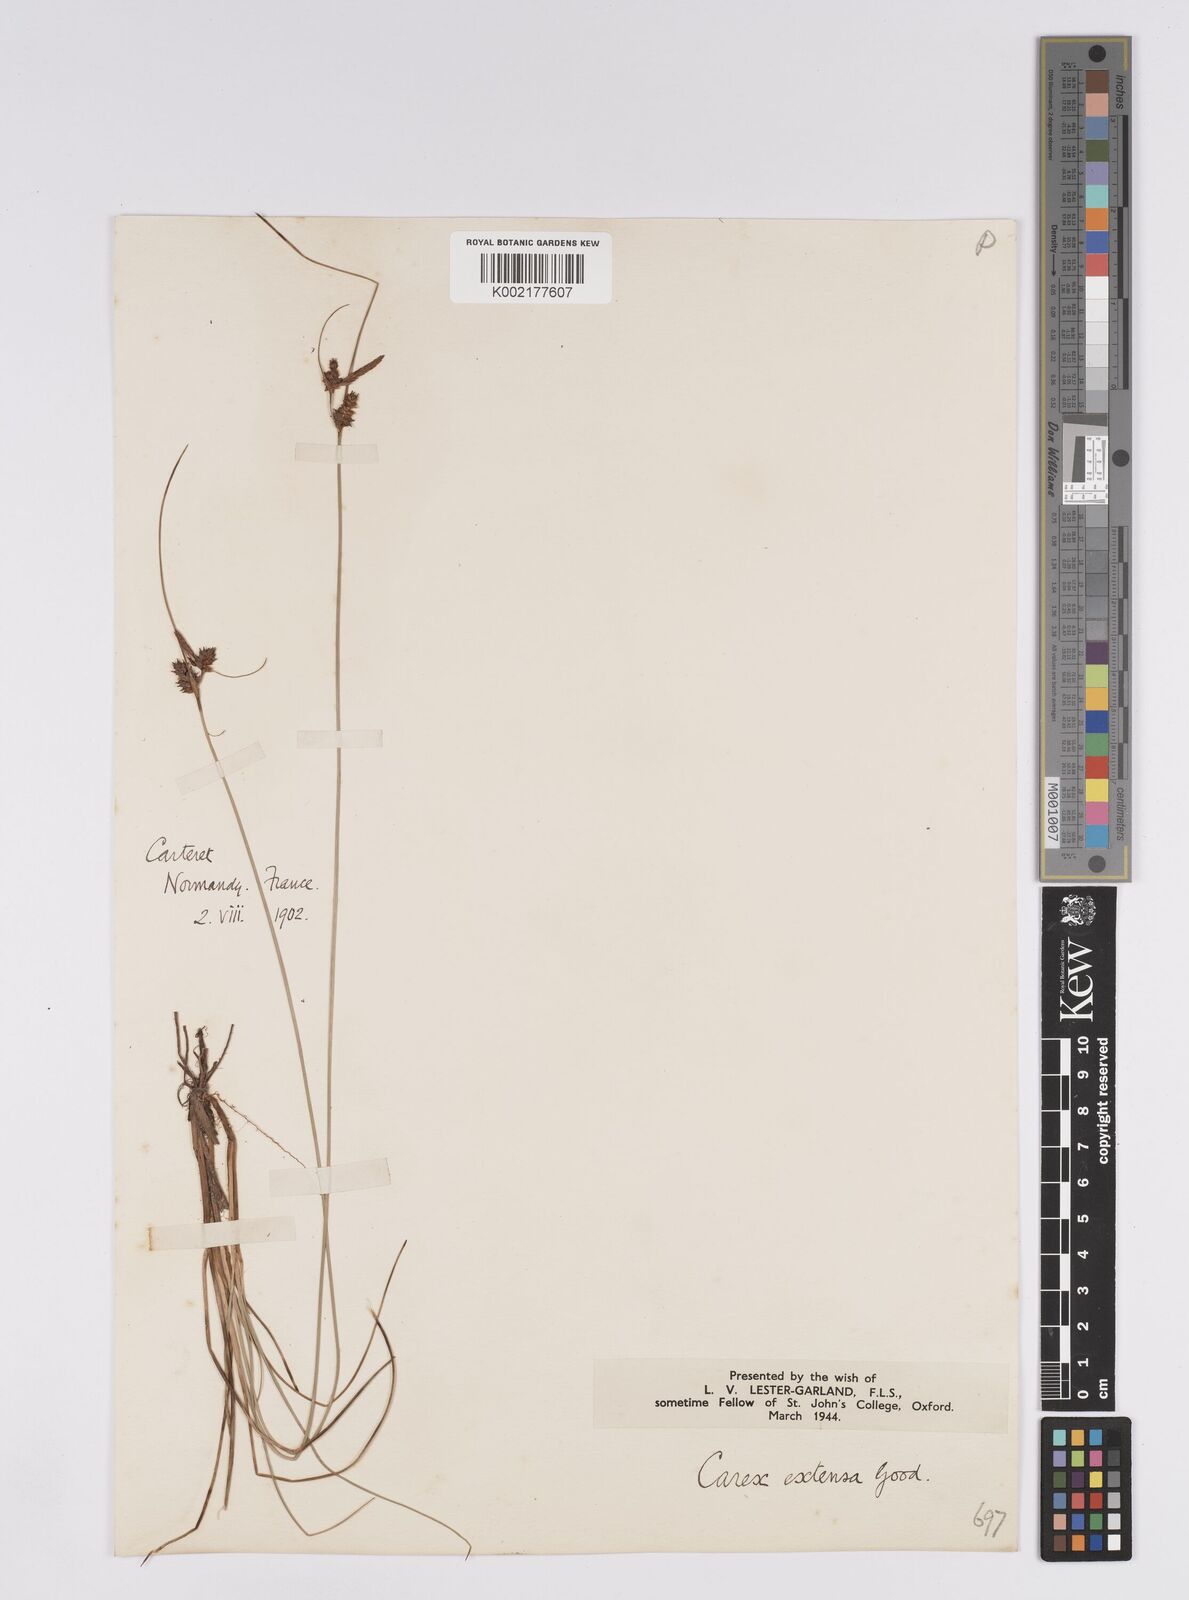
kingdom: Plantae
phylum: Tracheophyta
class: Liliopsida
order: Poales
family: Cyperaceae
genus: Carex
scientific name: Carex extensa
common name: Long-bracted sedge
